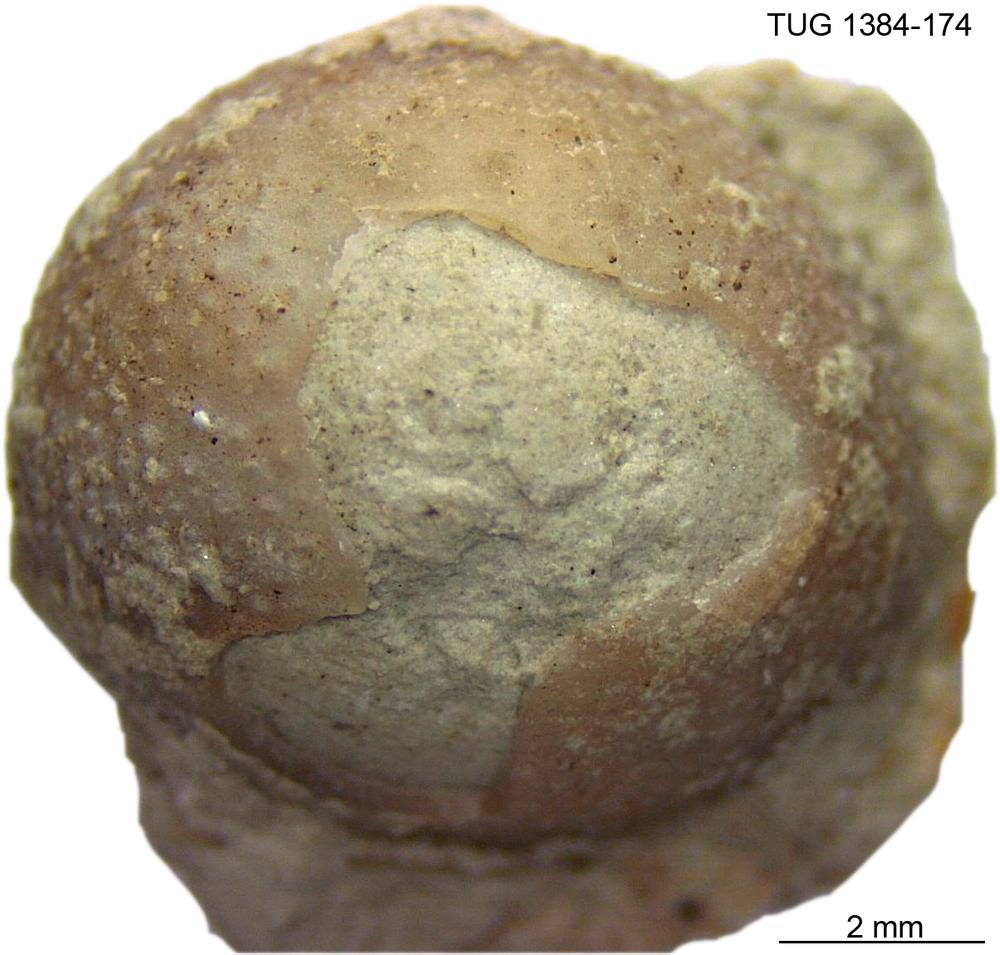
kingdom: Animalia
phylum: Arthropoda
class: Trilobita
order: Phacopida
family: Pterygometopidae
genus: Rollmops
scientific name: Rollmops
